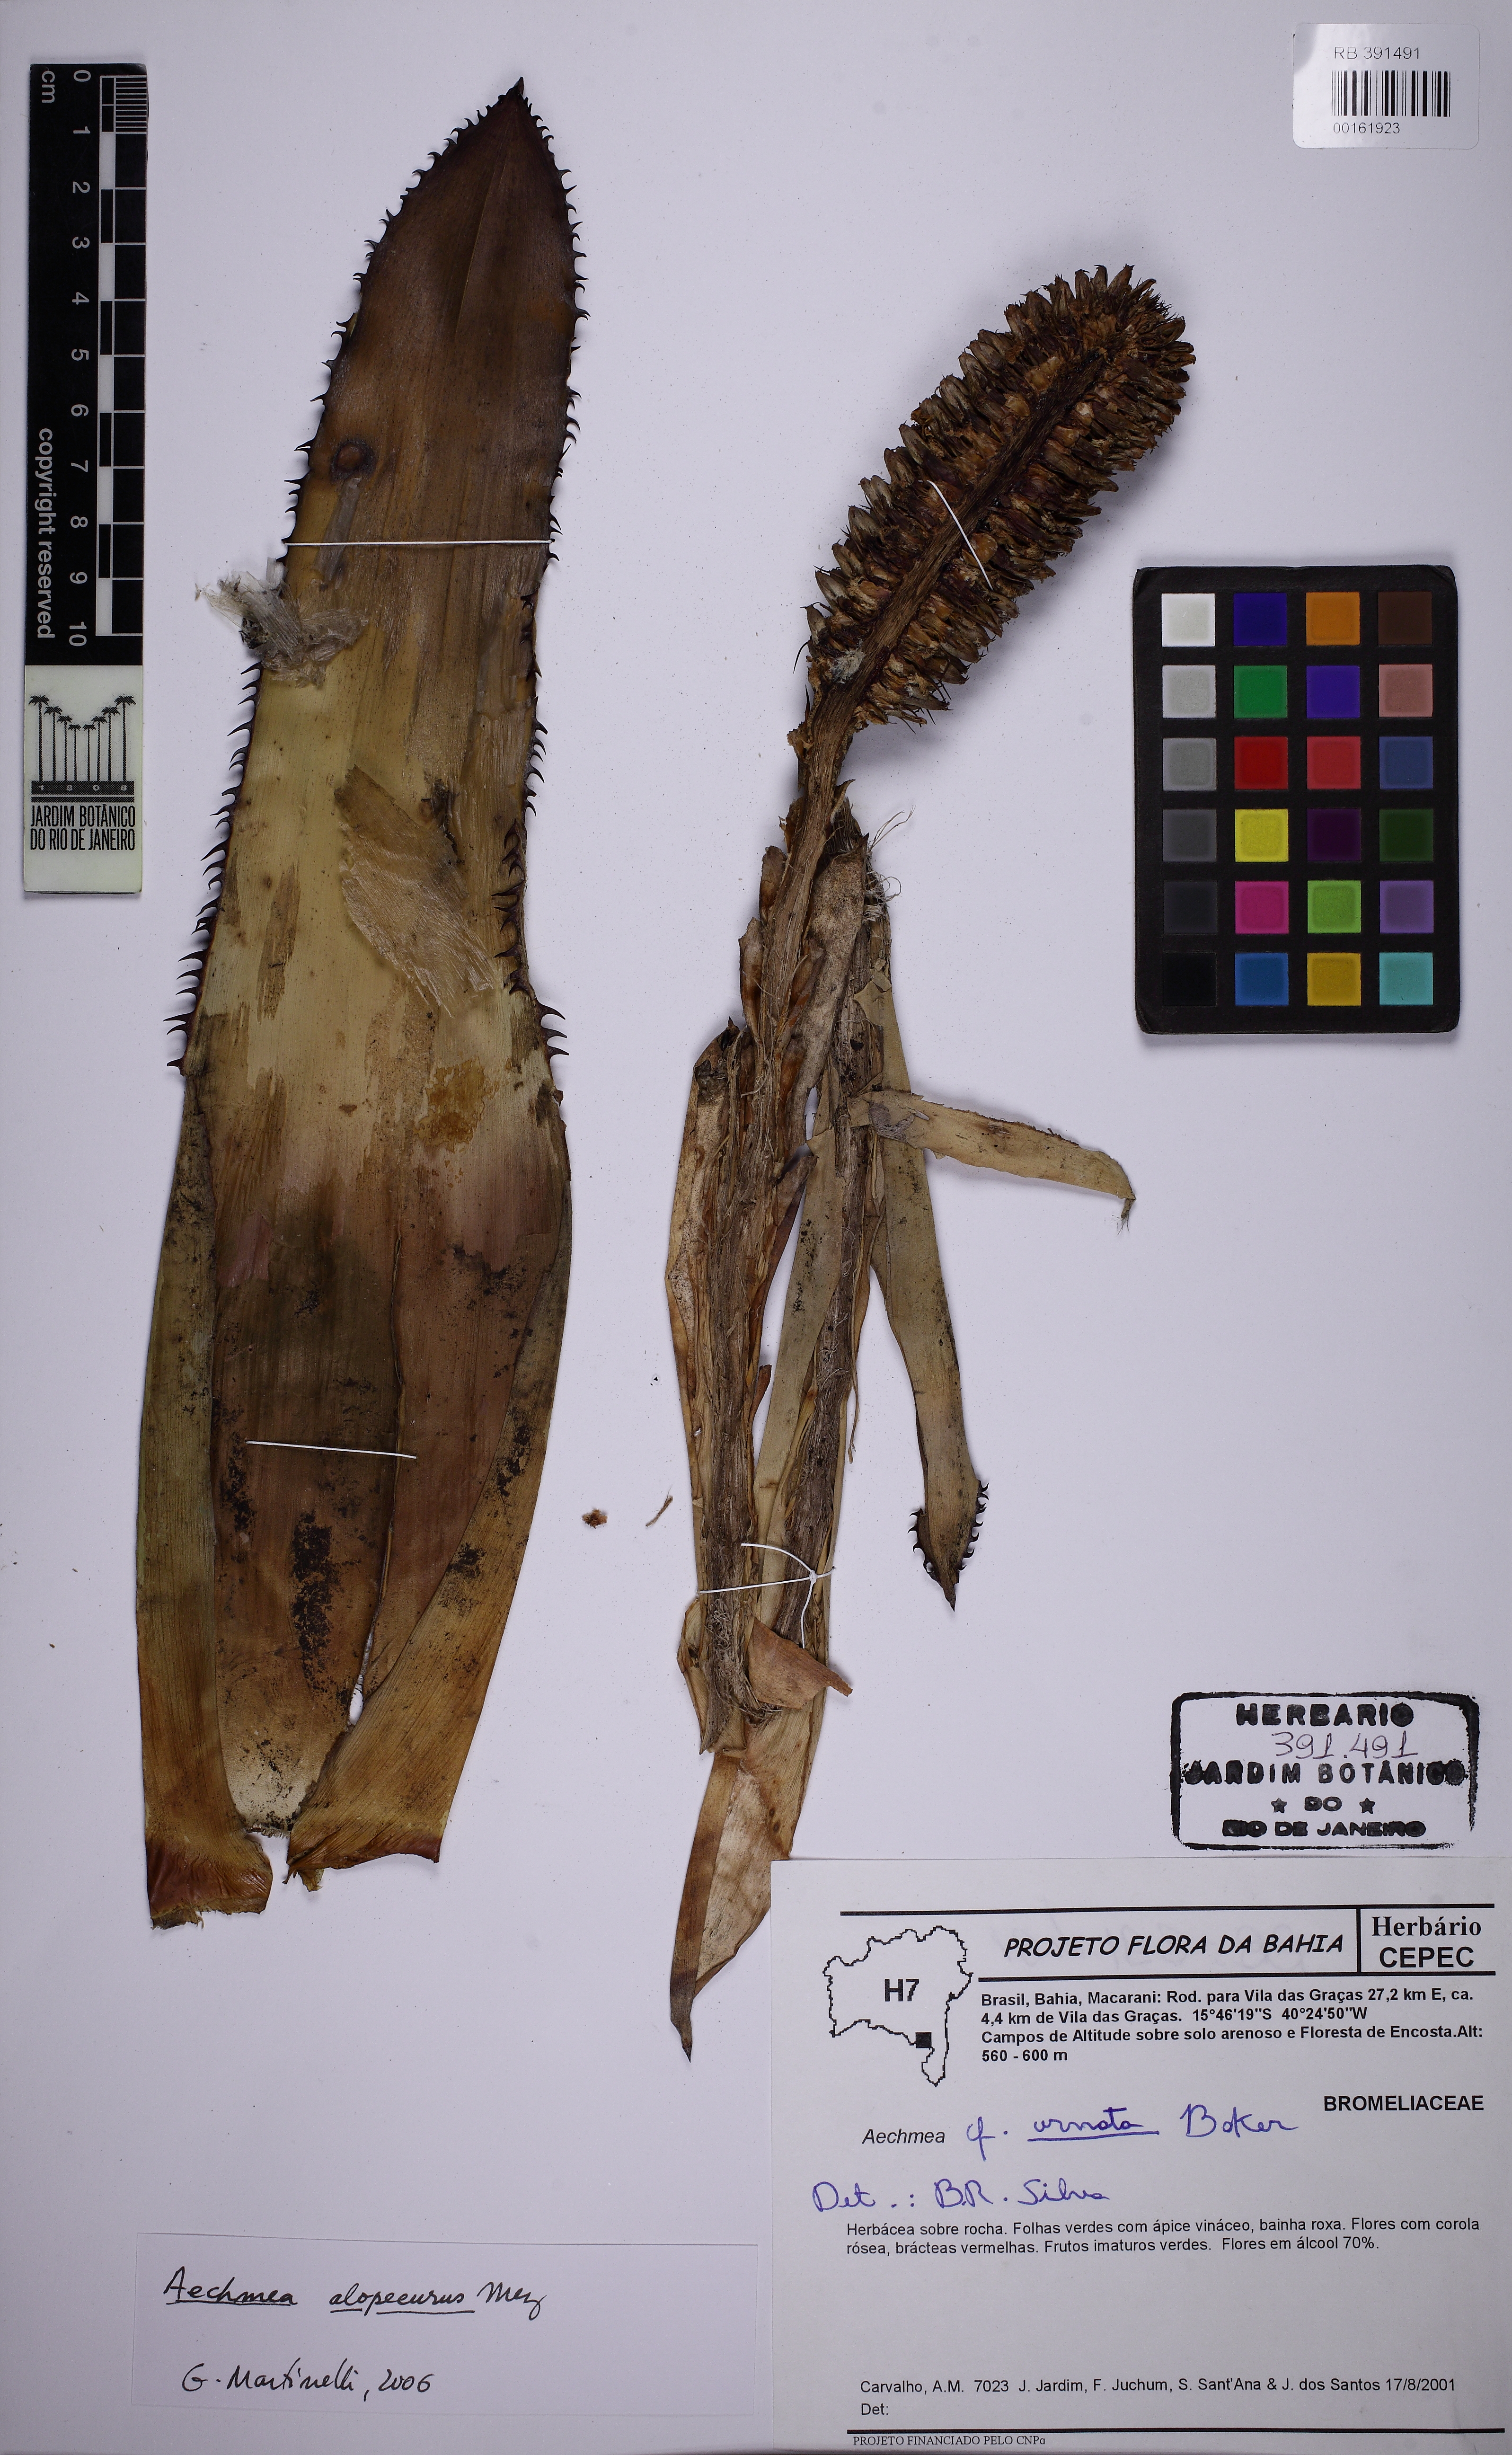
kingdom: Plantae
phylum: Tracheophyta
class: Liliopsida
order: Poales
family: Bromeliaceae
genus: Aechmea
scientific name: Aechmea alopecurus
